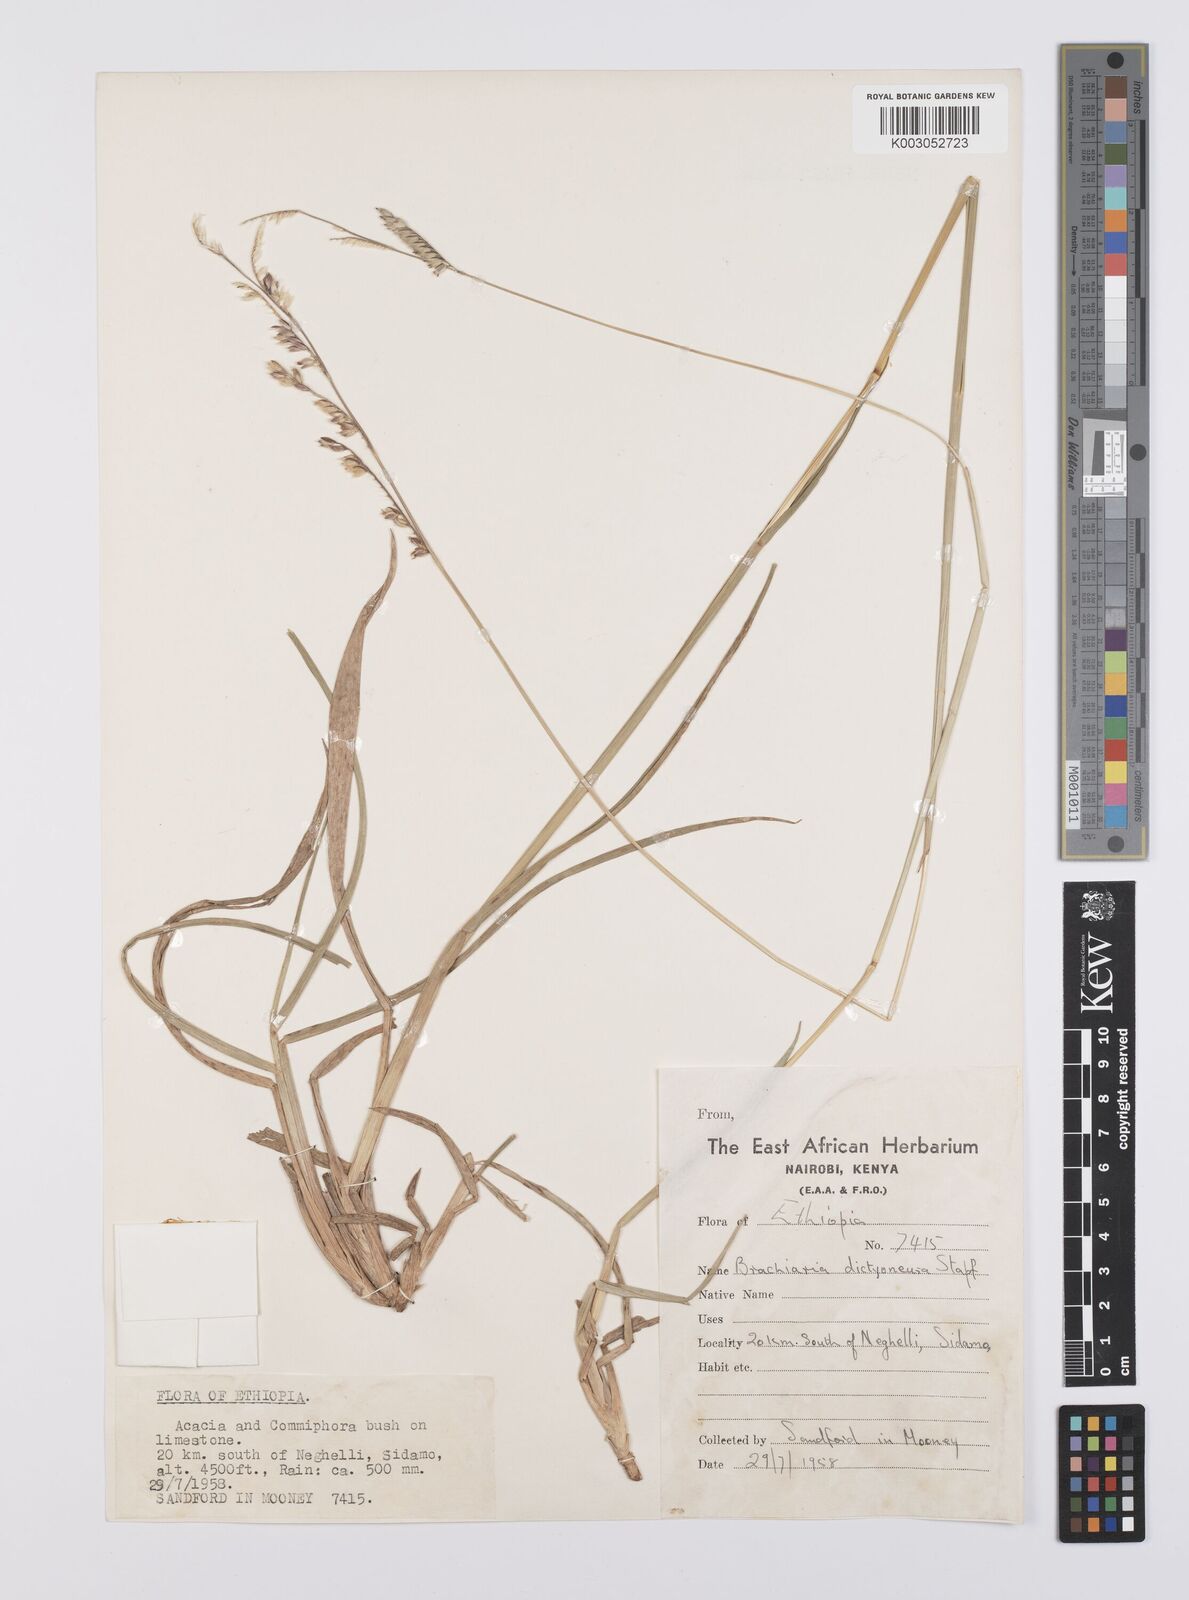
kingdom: Plantae
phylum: Tracheophyta
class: Liliopsida
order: Poales
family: Poaceae
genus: Urochloa
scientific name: Urochloa dictyoneura
